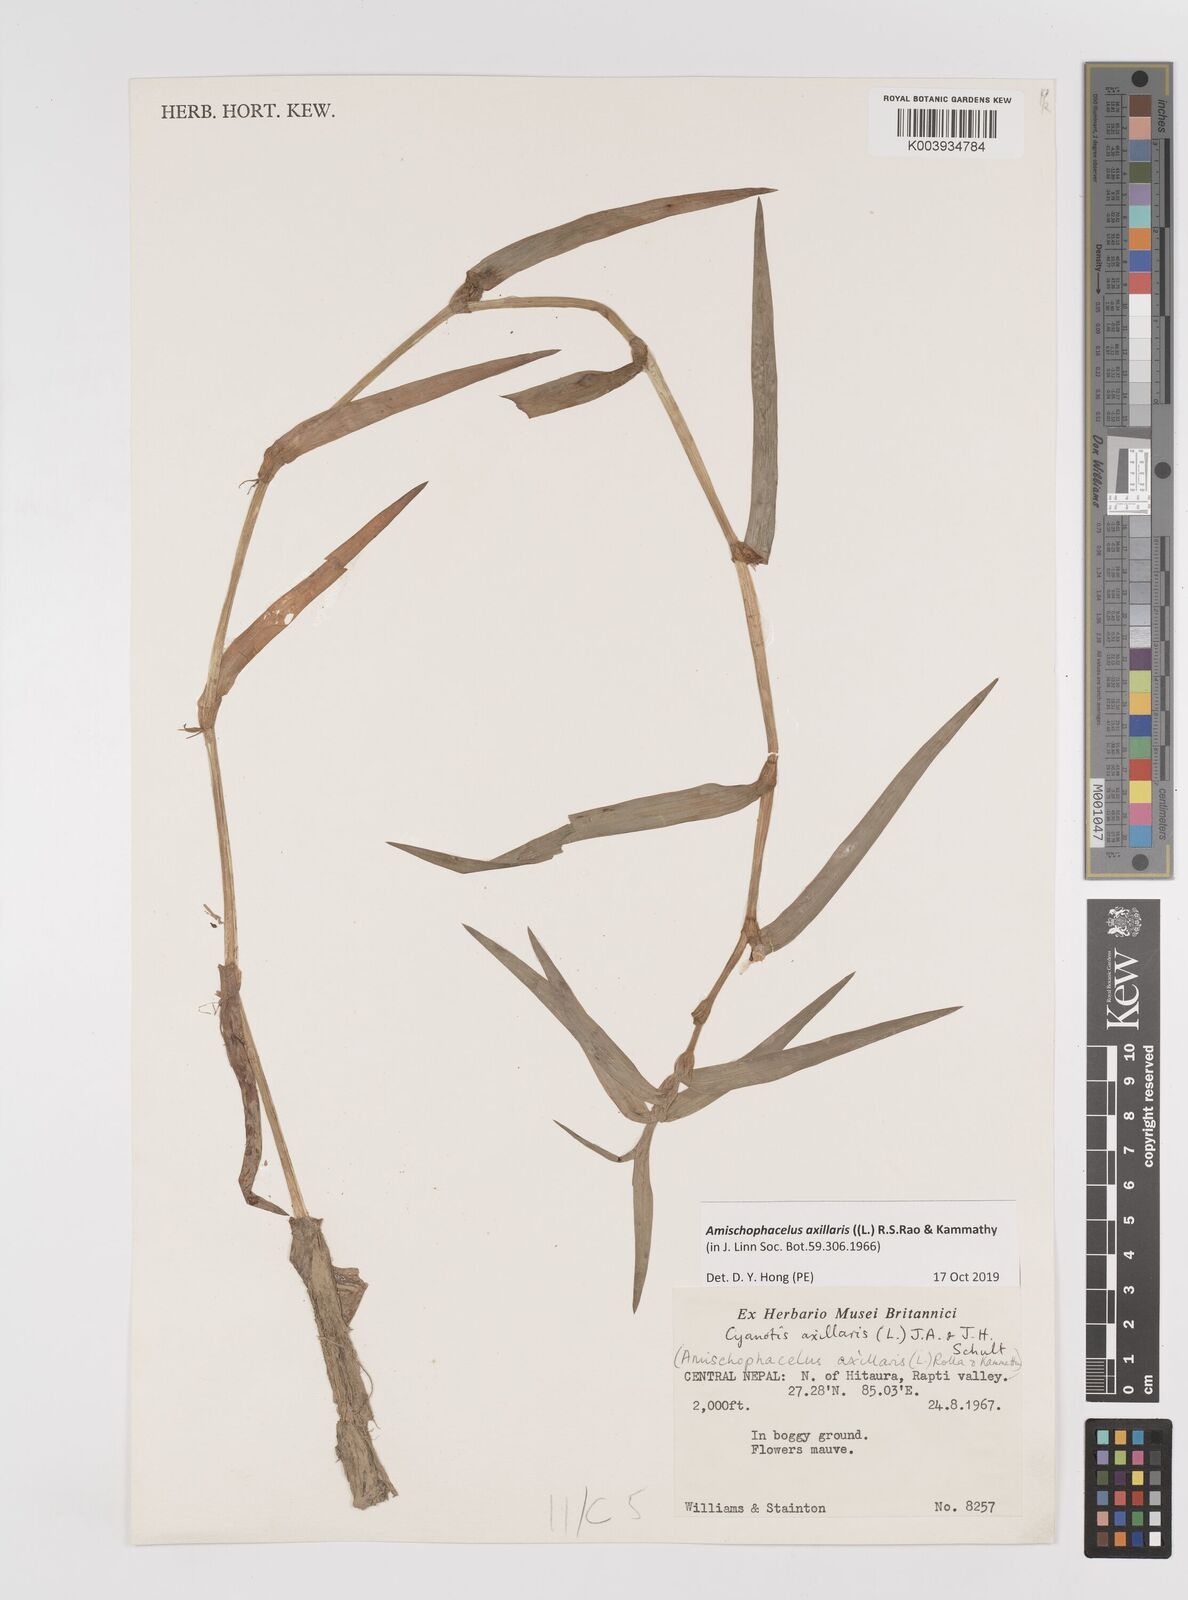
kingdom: Plantae
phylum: Tracheophyta
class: Liliopsida
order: Commelinales
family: Commelinaceae
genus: Cyanotis
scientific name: Cyanotis axillaris
